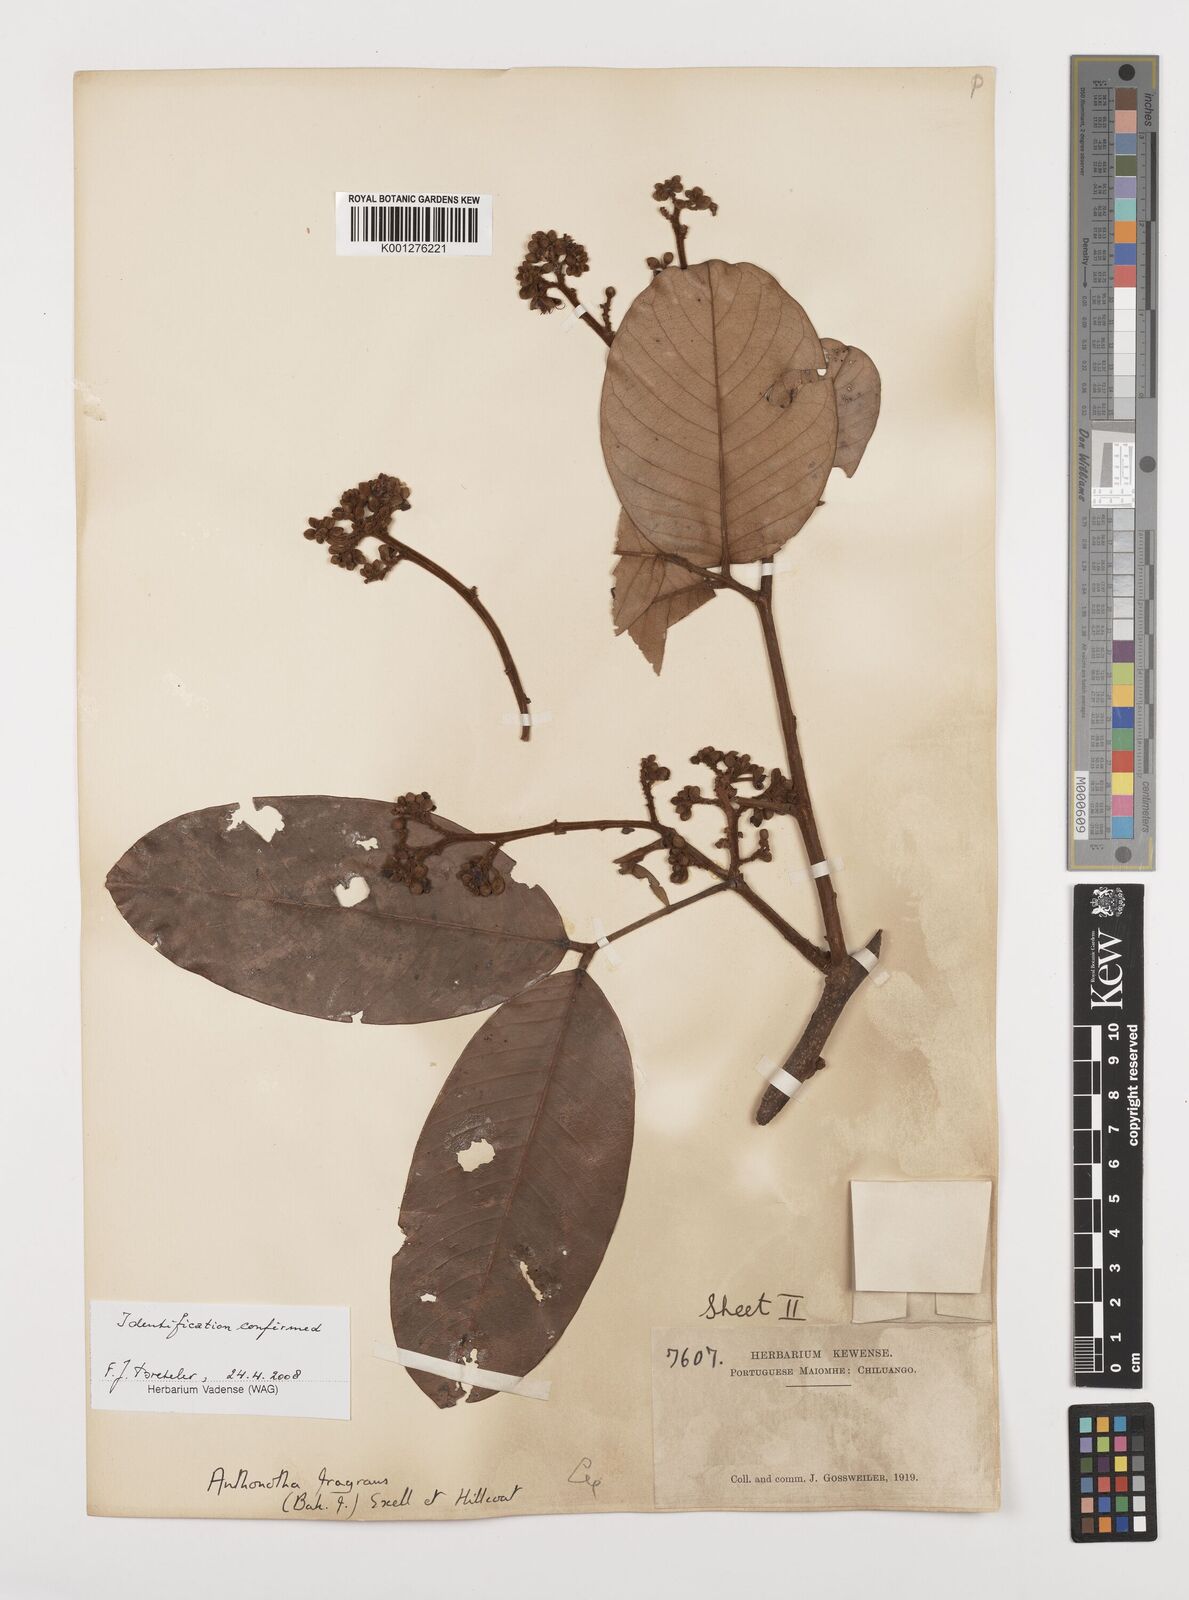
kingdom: Plantae
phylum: Tracheophyta
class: Magnoliopsida
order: Fabales
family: Fabaceae
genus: Anthonotha
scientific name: Anthonotha fragrans
